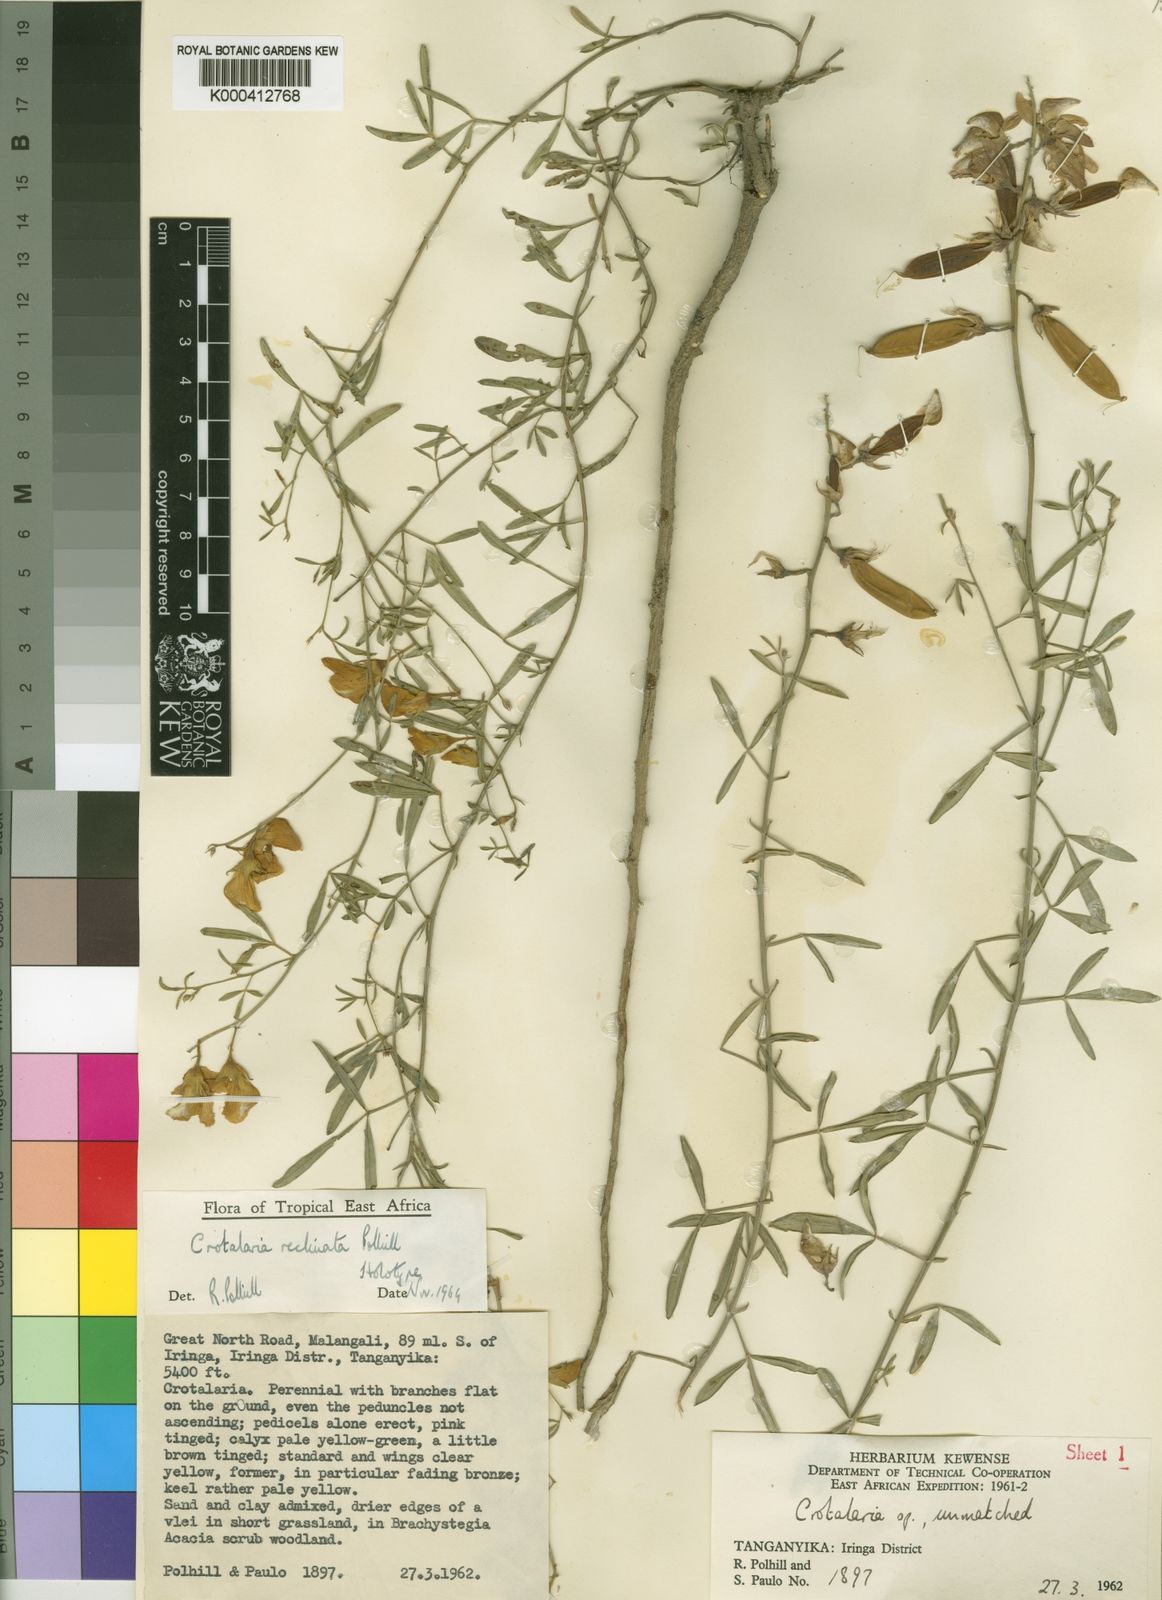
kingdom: Plantae
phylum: Tracheophyta
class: Magnoliopsida
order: Fabales
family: Fabaceae
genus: Crotalaria
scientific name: Crotalaria reclinata
